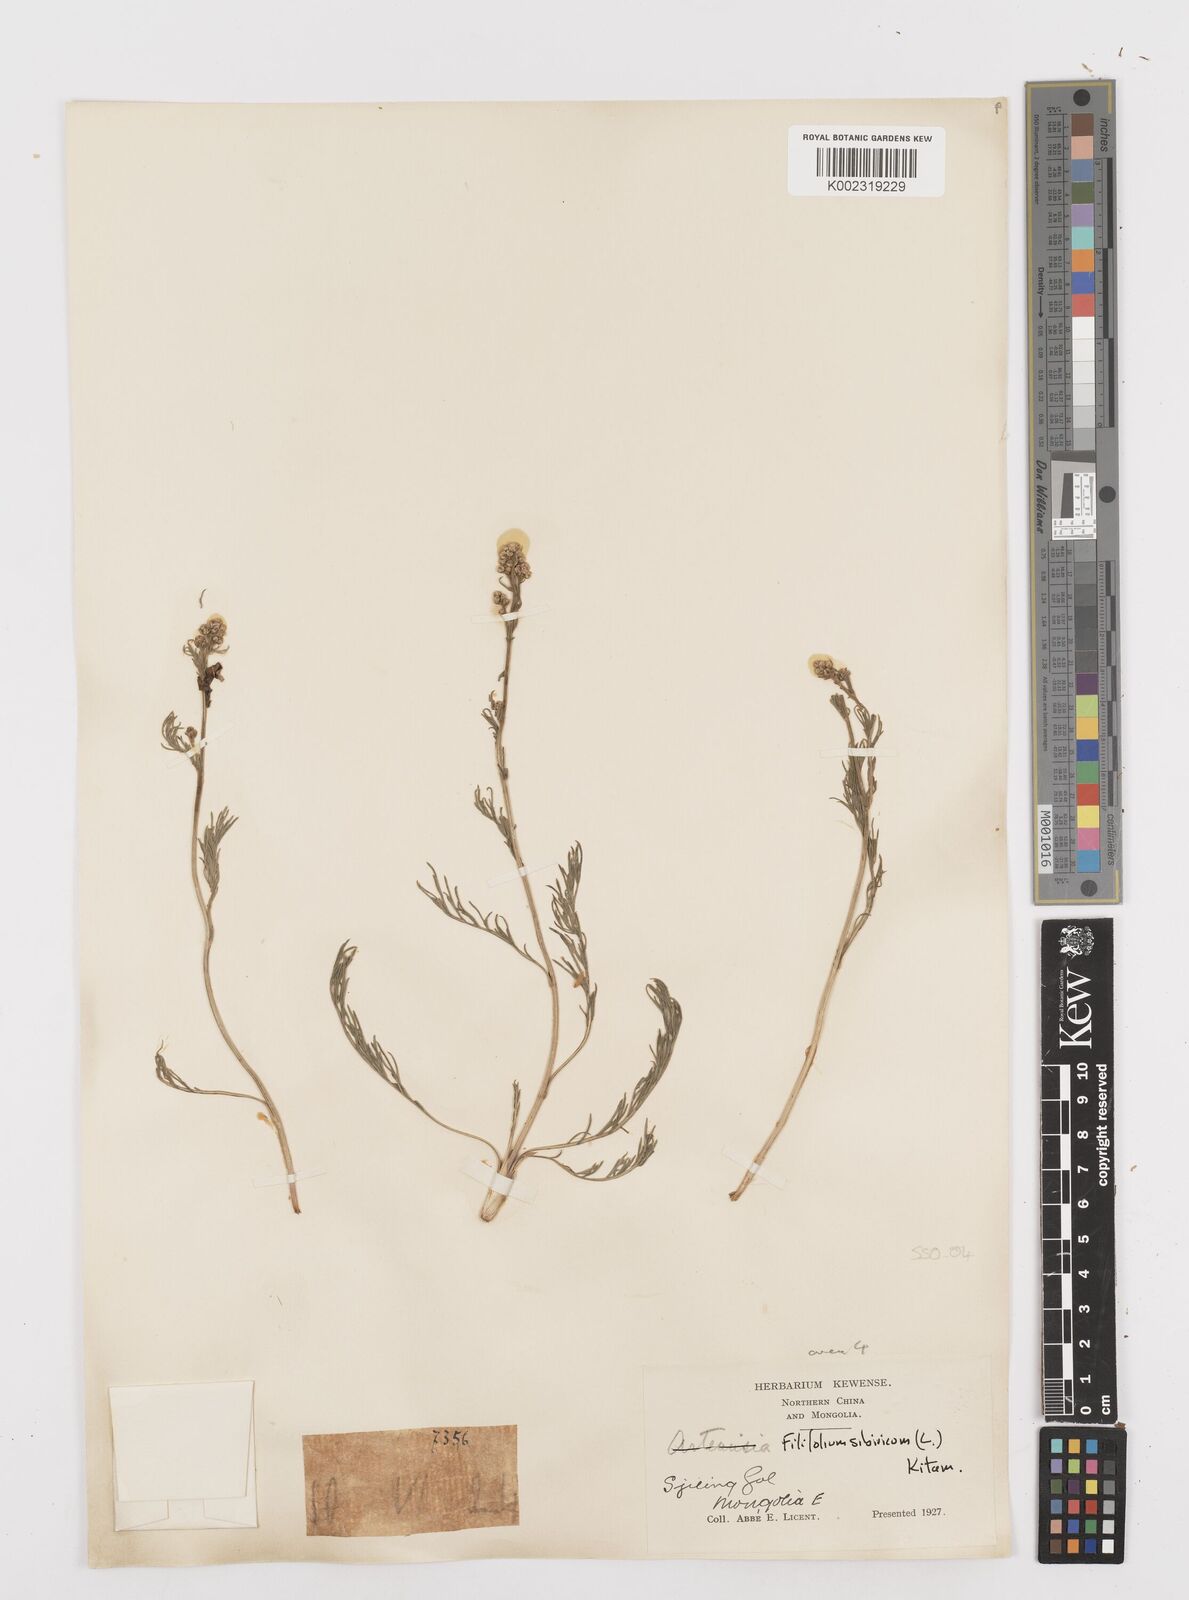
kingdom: Plantae
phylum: Tracheophyta
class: Magnoliopsida
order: Asterales
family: Asteraceae
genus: Filifolium
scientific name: Filifolium sibiricum
